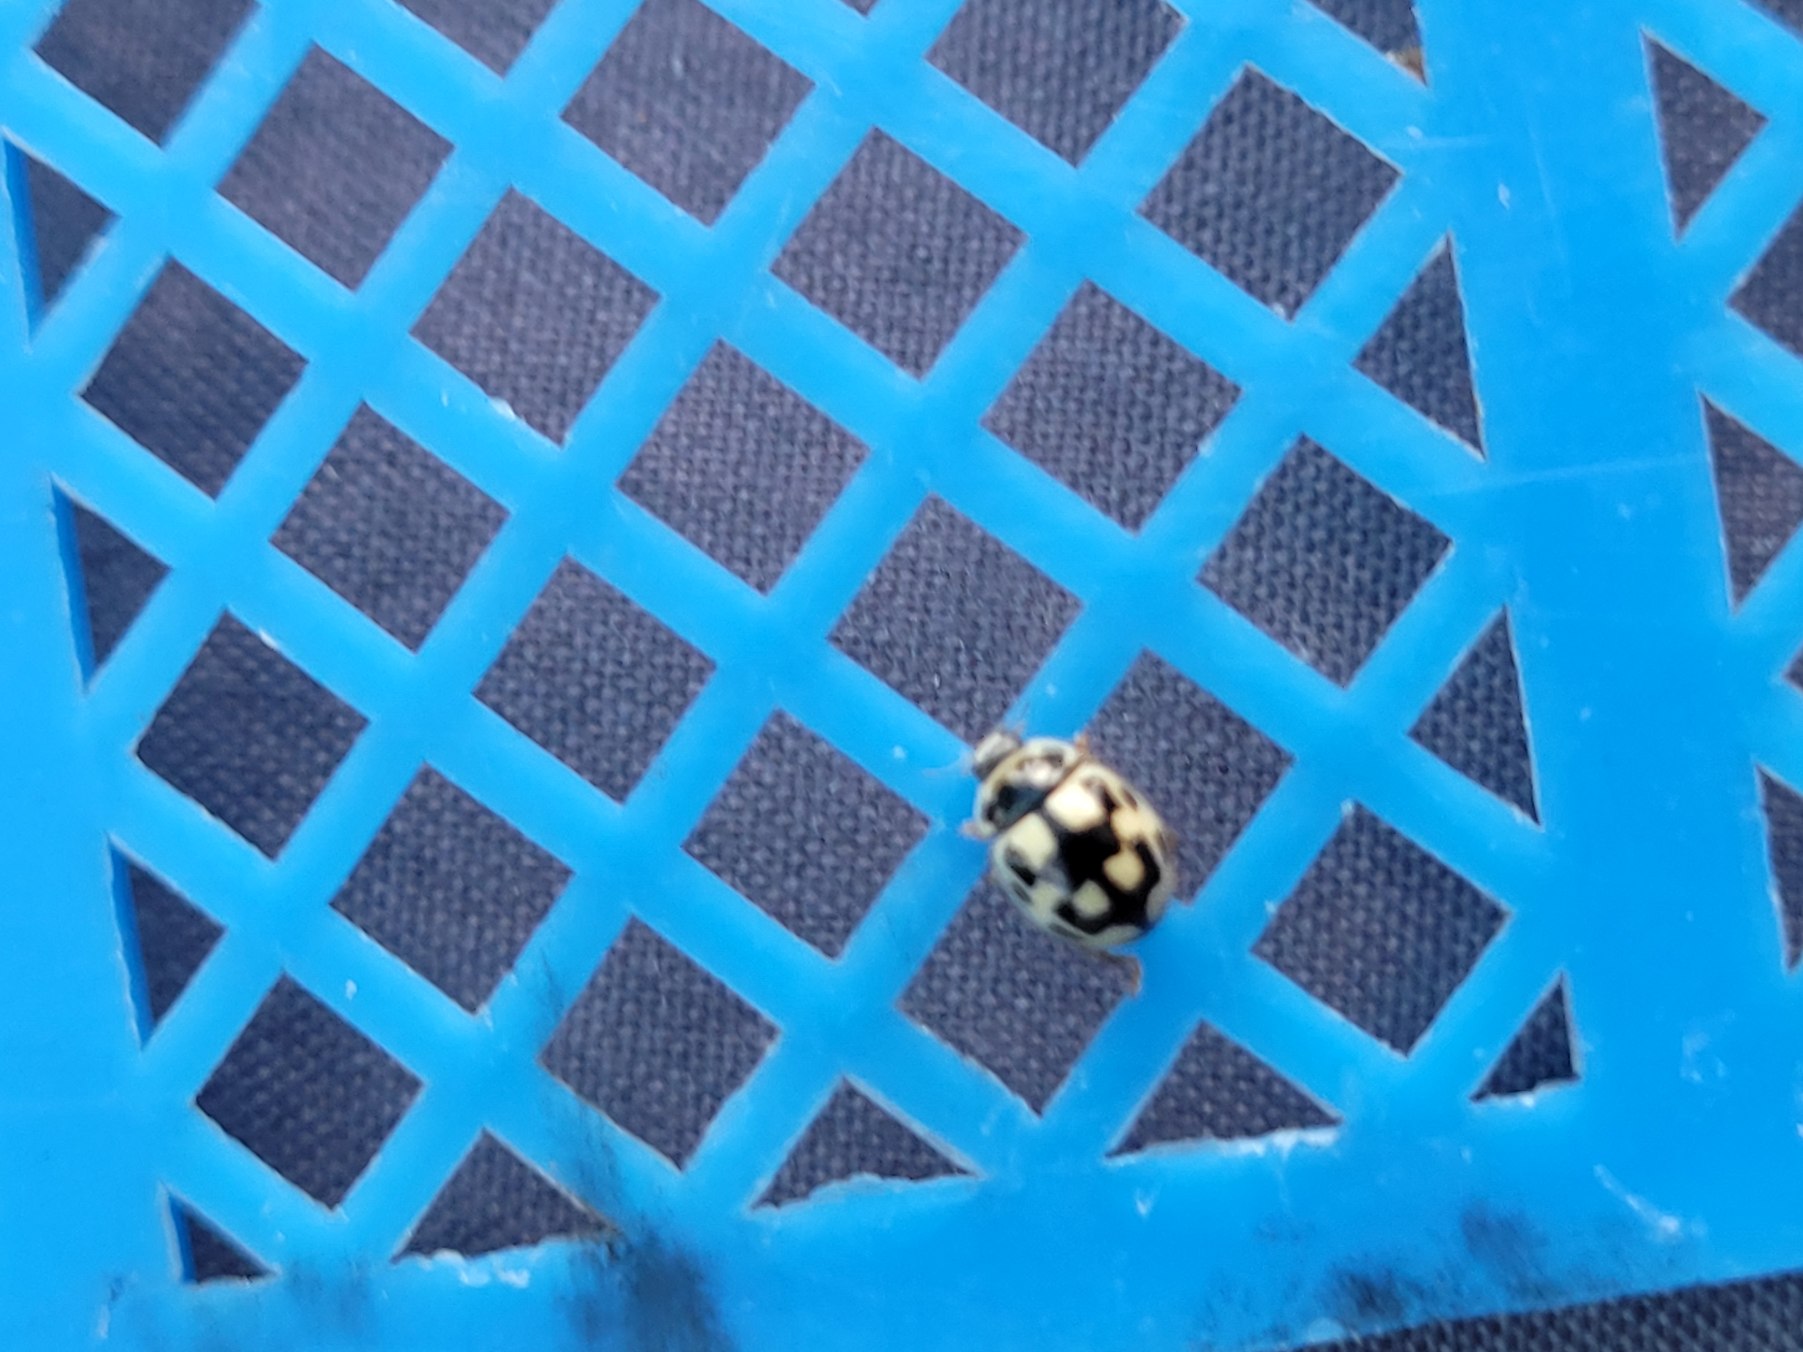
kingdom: Animalia
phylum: Arthropoda
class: Insecta
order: Coleoptera
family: Coccinellidae
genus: Propylaea
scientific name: Propylaea quatuordecimpunctata
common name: Skakbræt
